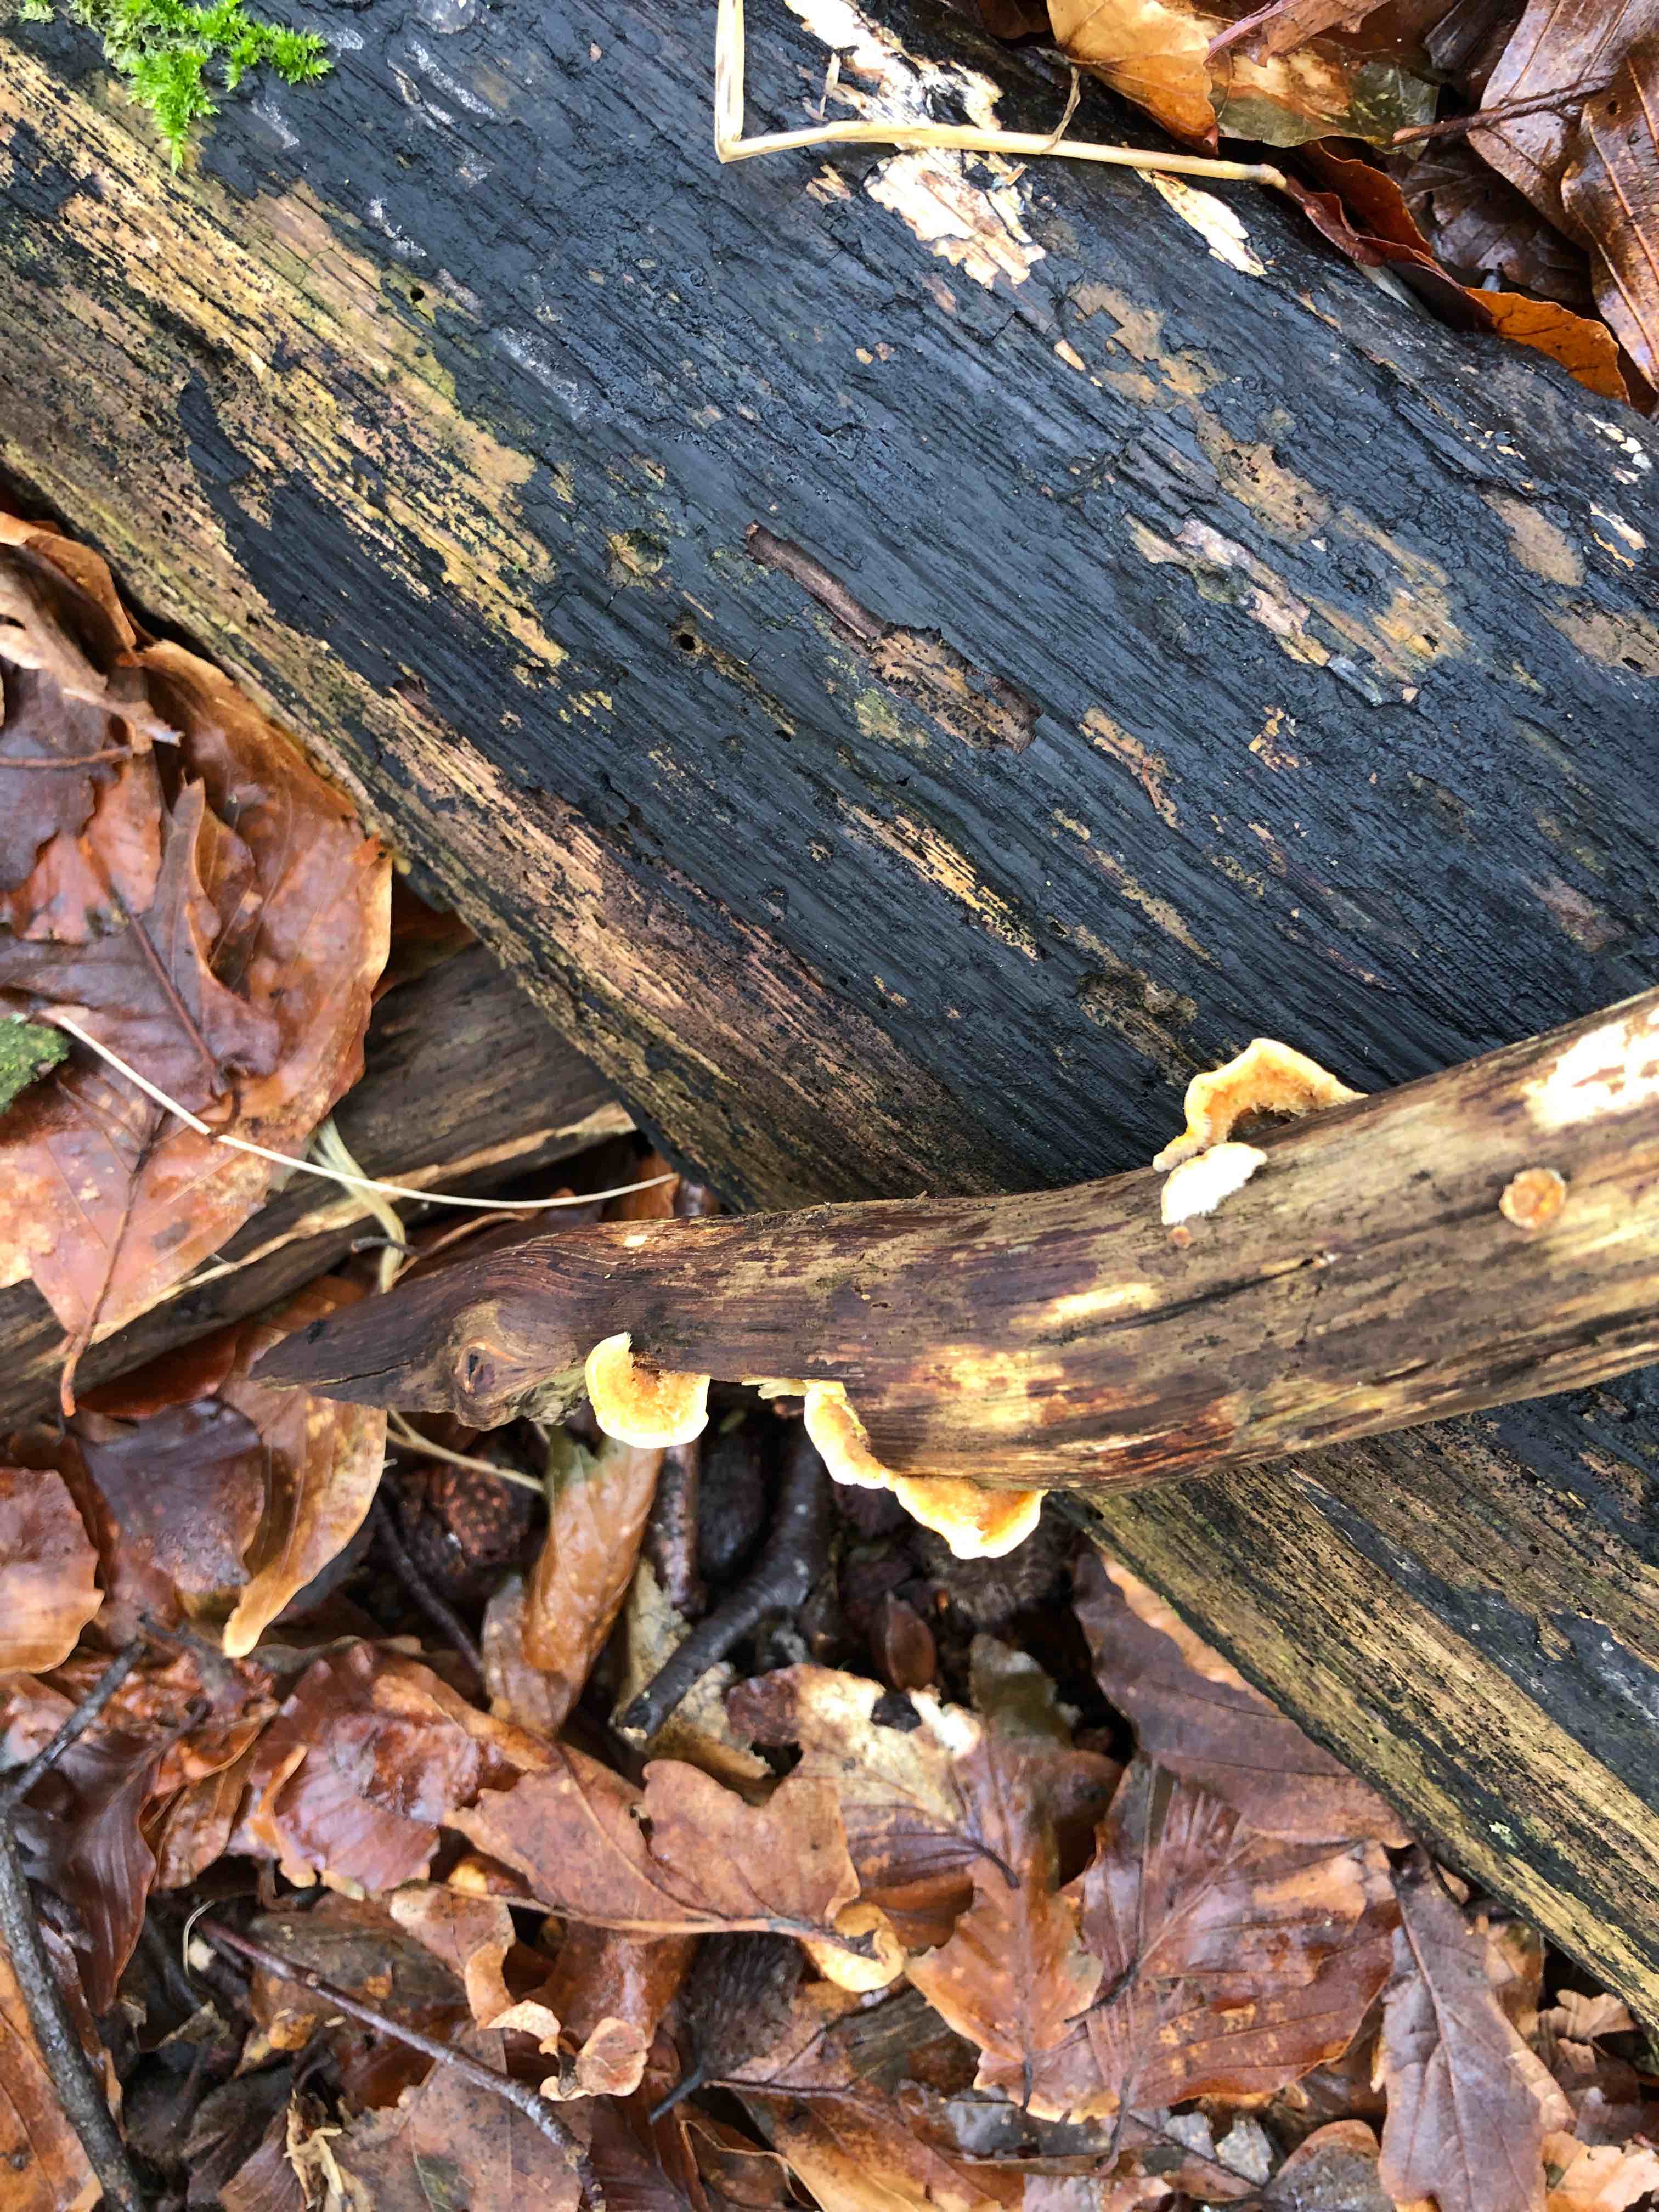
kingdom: Fungi
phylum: Basidiomycota
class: Agaricomycetes
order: Russulales
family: Stereaceae
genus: Stereum
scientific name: Stereum hirsutum
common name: håret lædersvamp
